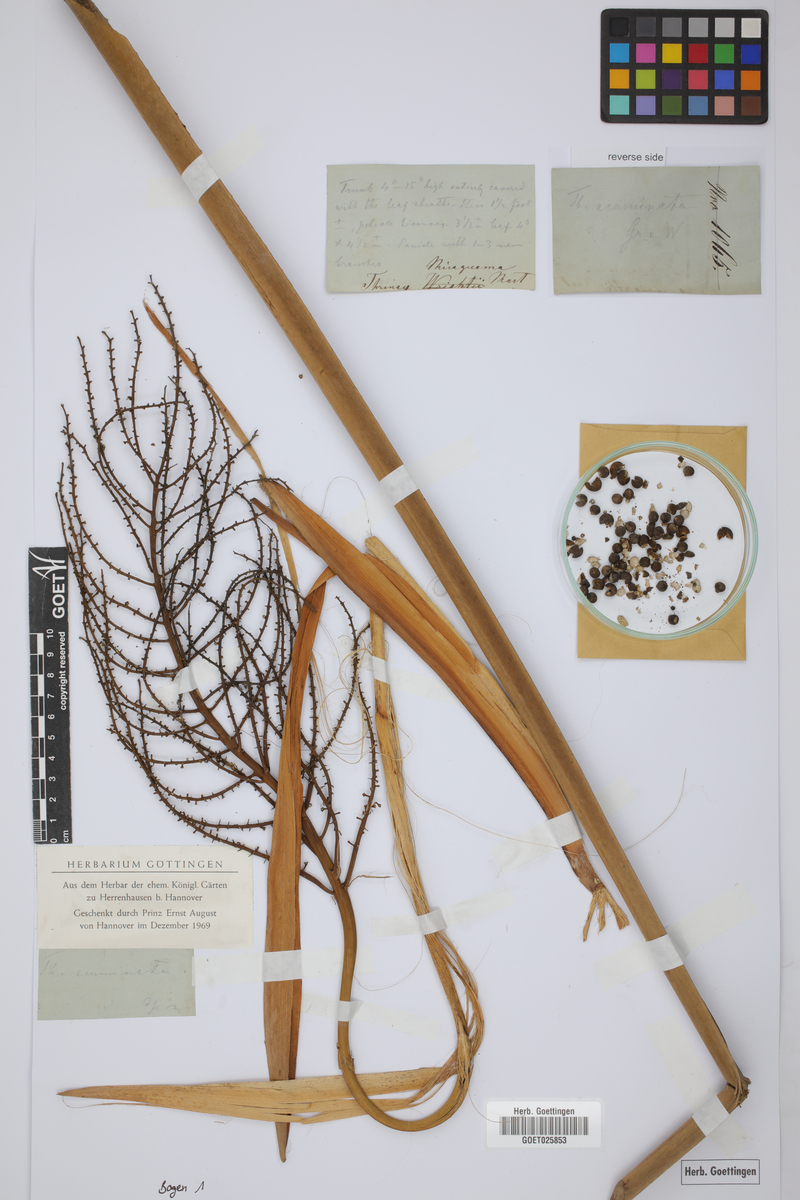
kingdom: Plantae
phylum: Tracheophyta
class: Liliopsida
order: Arecales
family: Arecaceae
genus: Coccothrinax
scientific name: Coccothrinax miraguama
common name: Miragua palm
